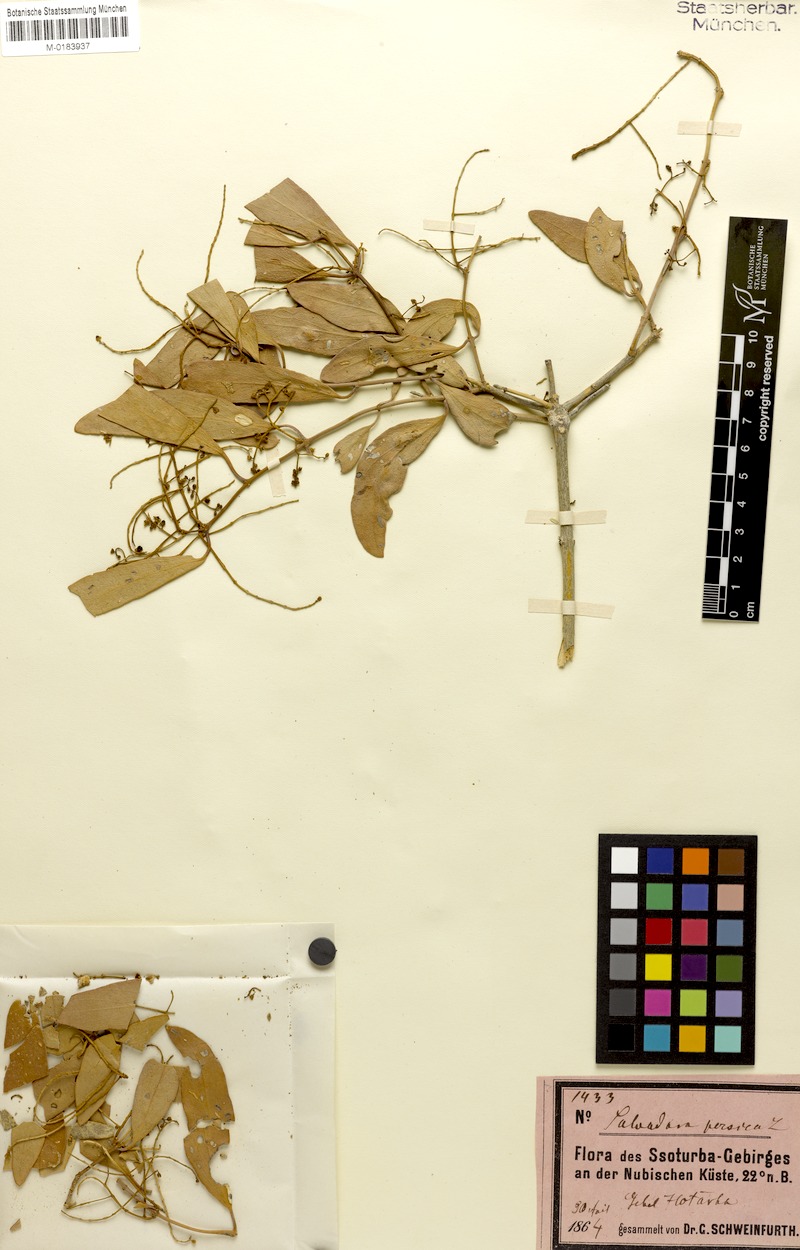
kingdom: Plantae
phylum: Tracheophyta
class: Magnoliopsida
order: Brassicales
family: Salvadoraceae
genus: Salvadora
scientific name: Salvadora persica
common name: Toothbrushtree
